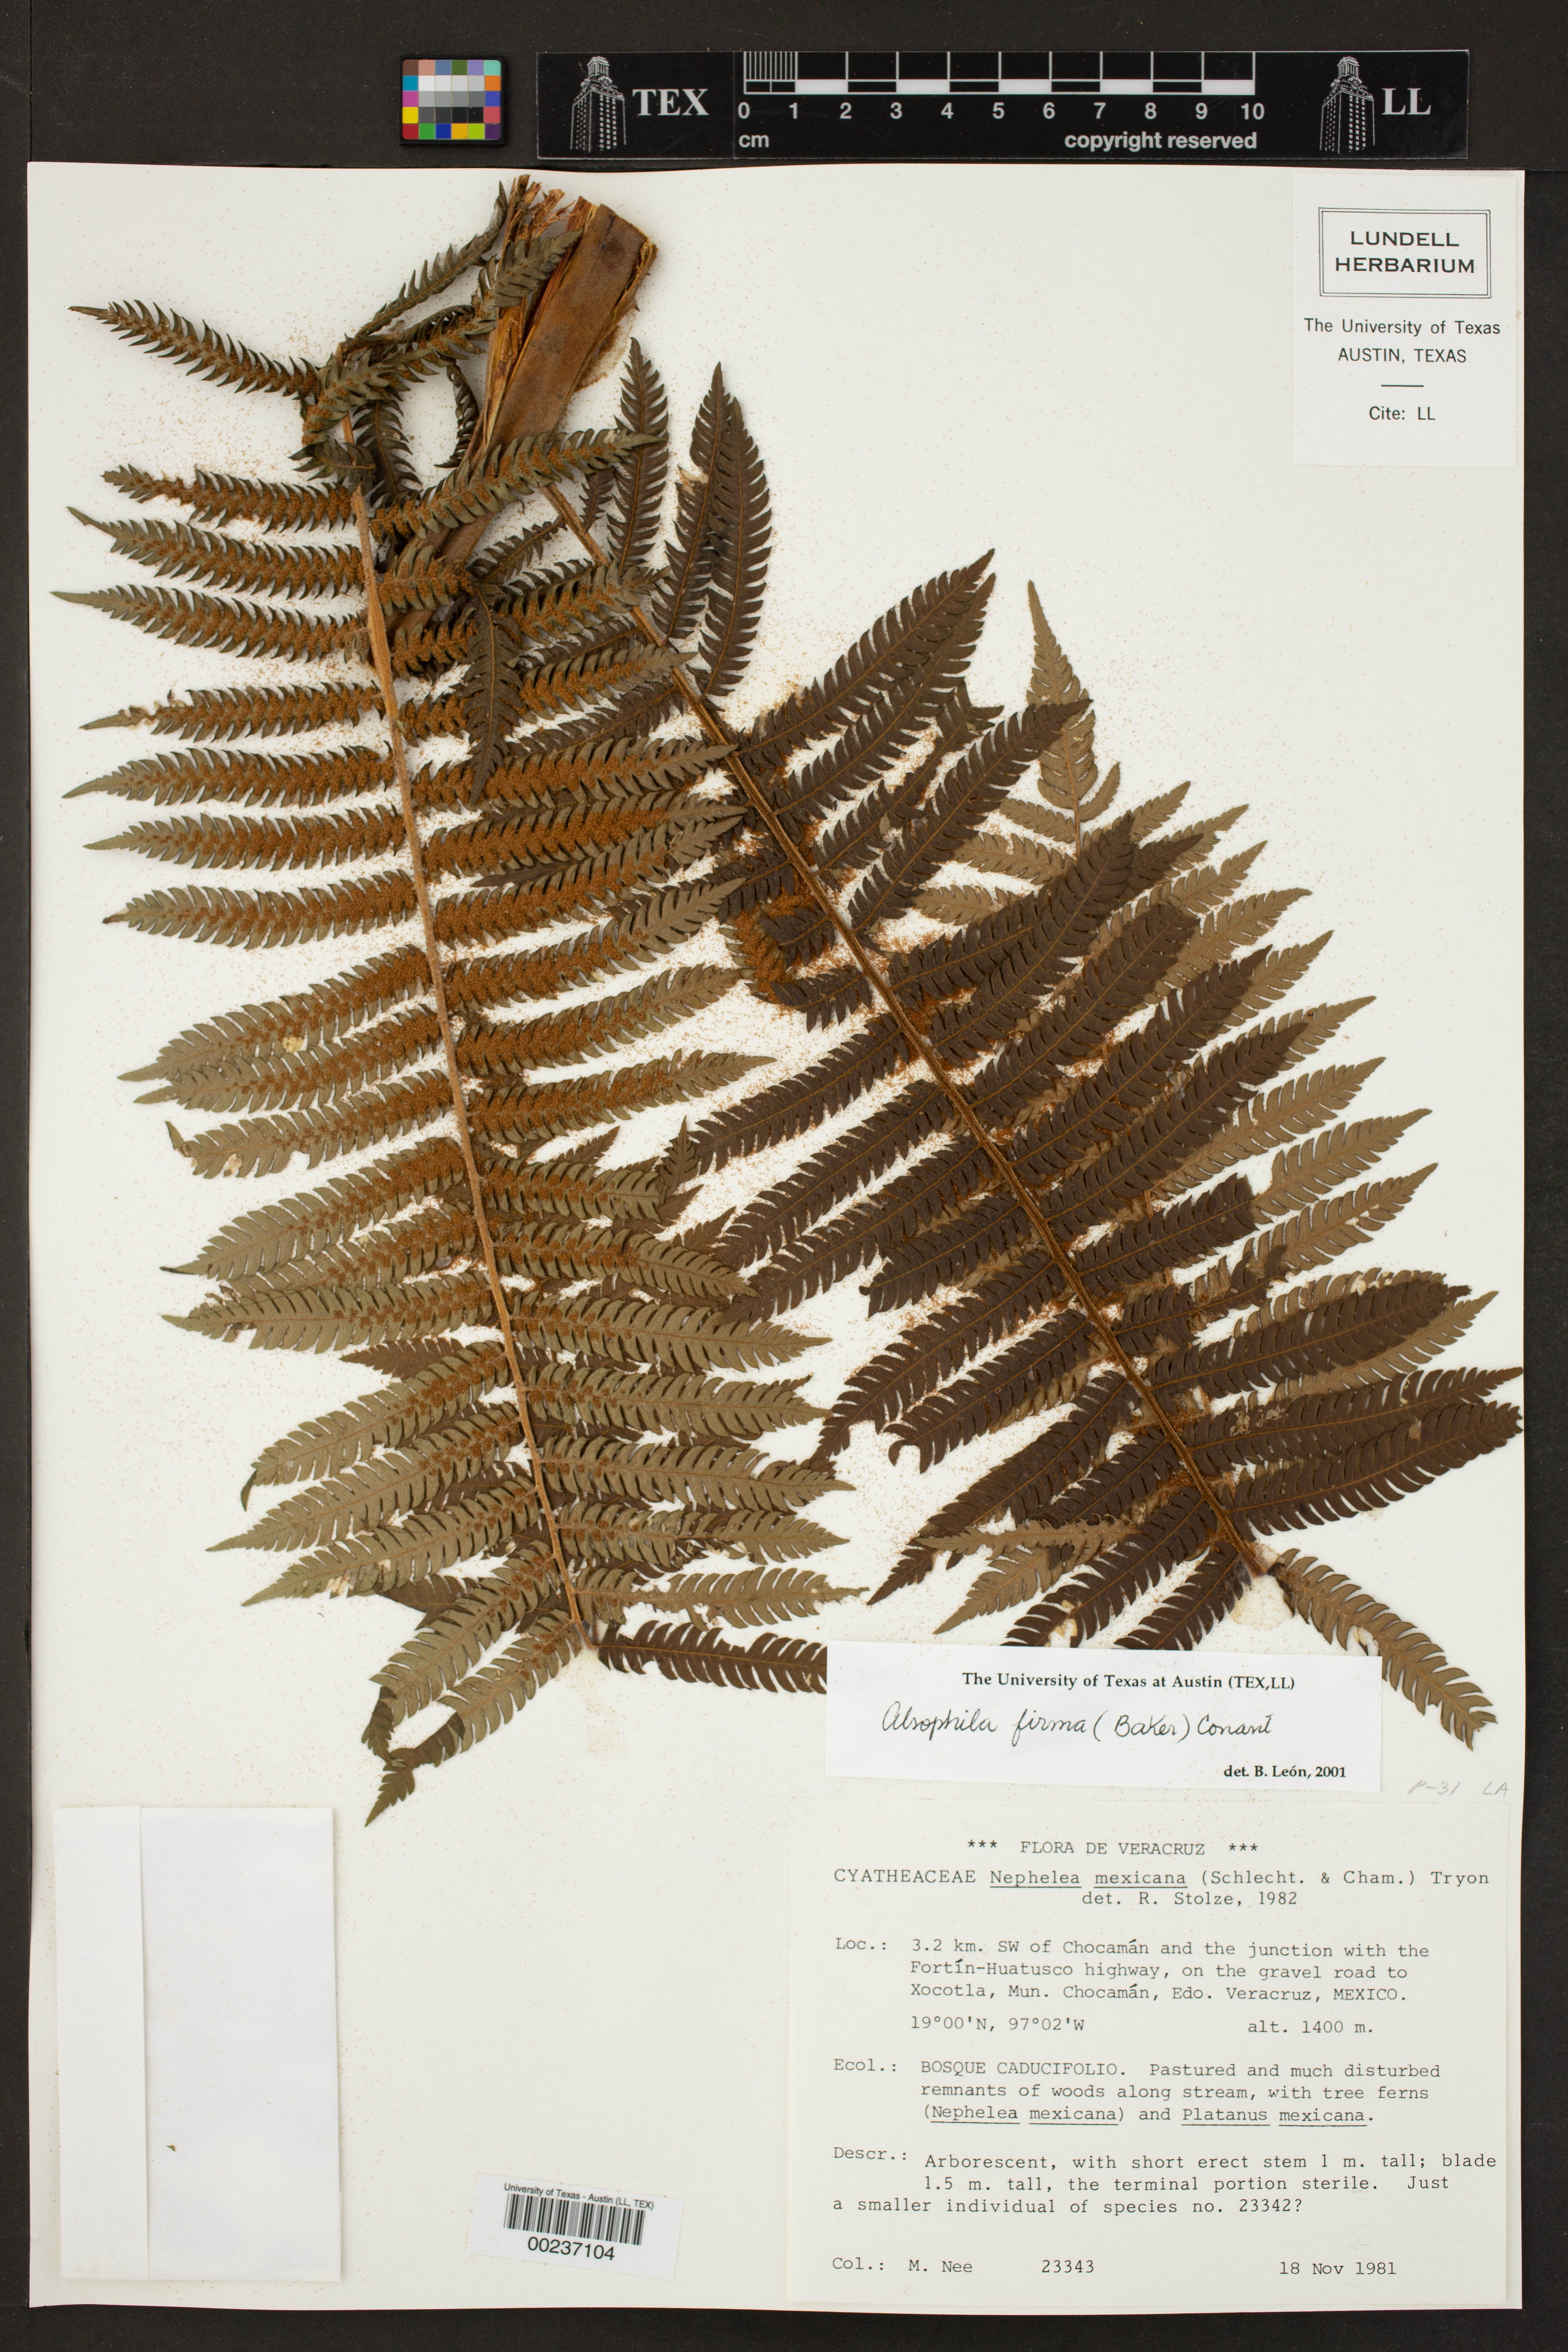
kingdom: Plantae
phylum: Tracheophyta
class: Polypodiopsida
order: Cyatheales
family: Cyatheaceae
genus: Alsophila
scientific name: Alsophila firma
